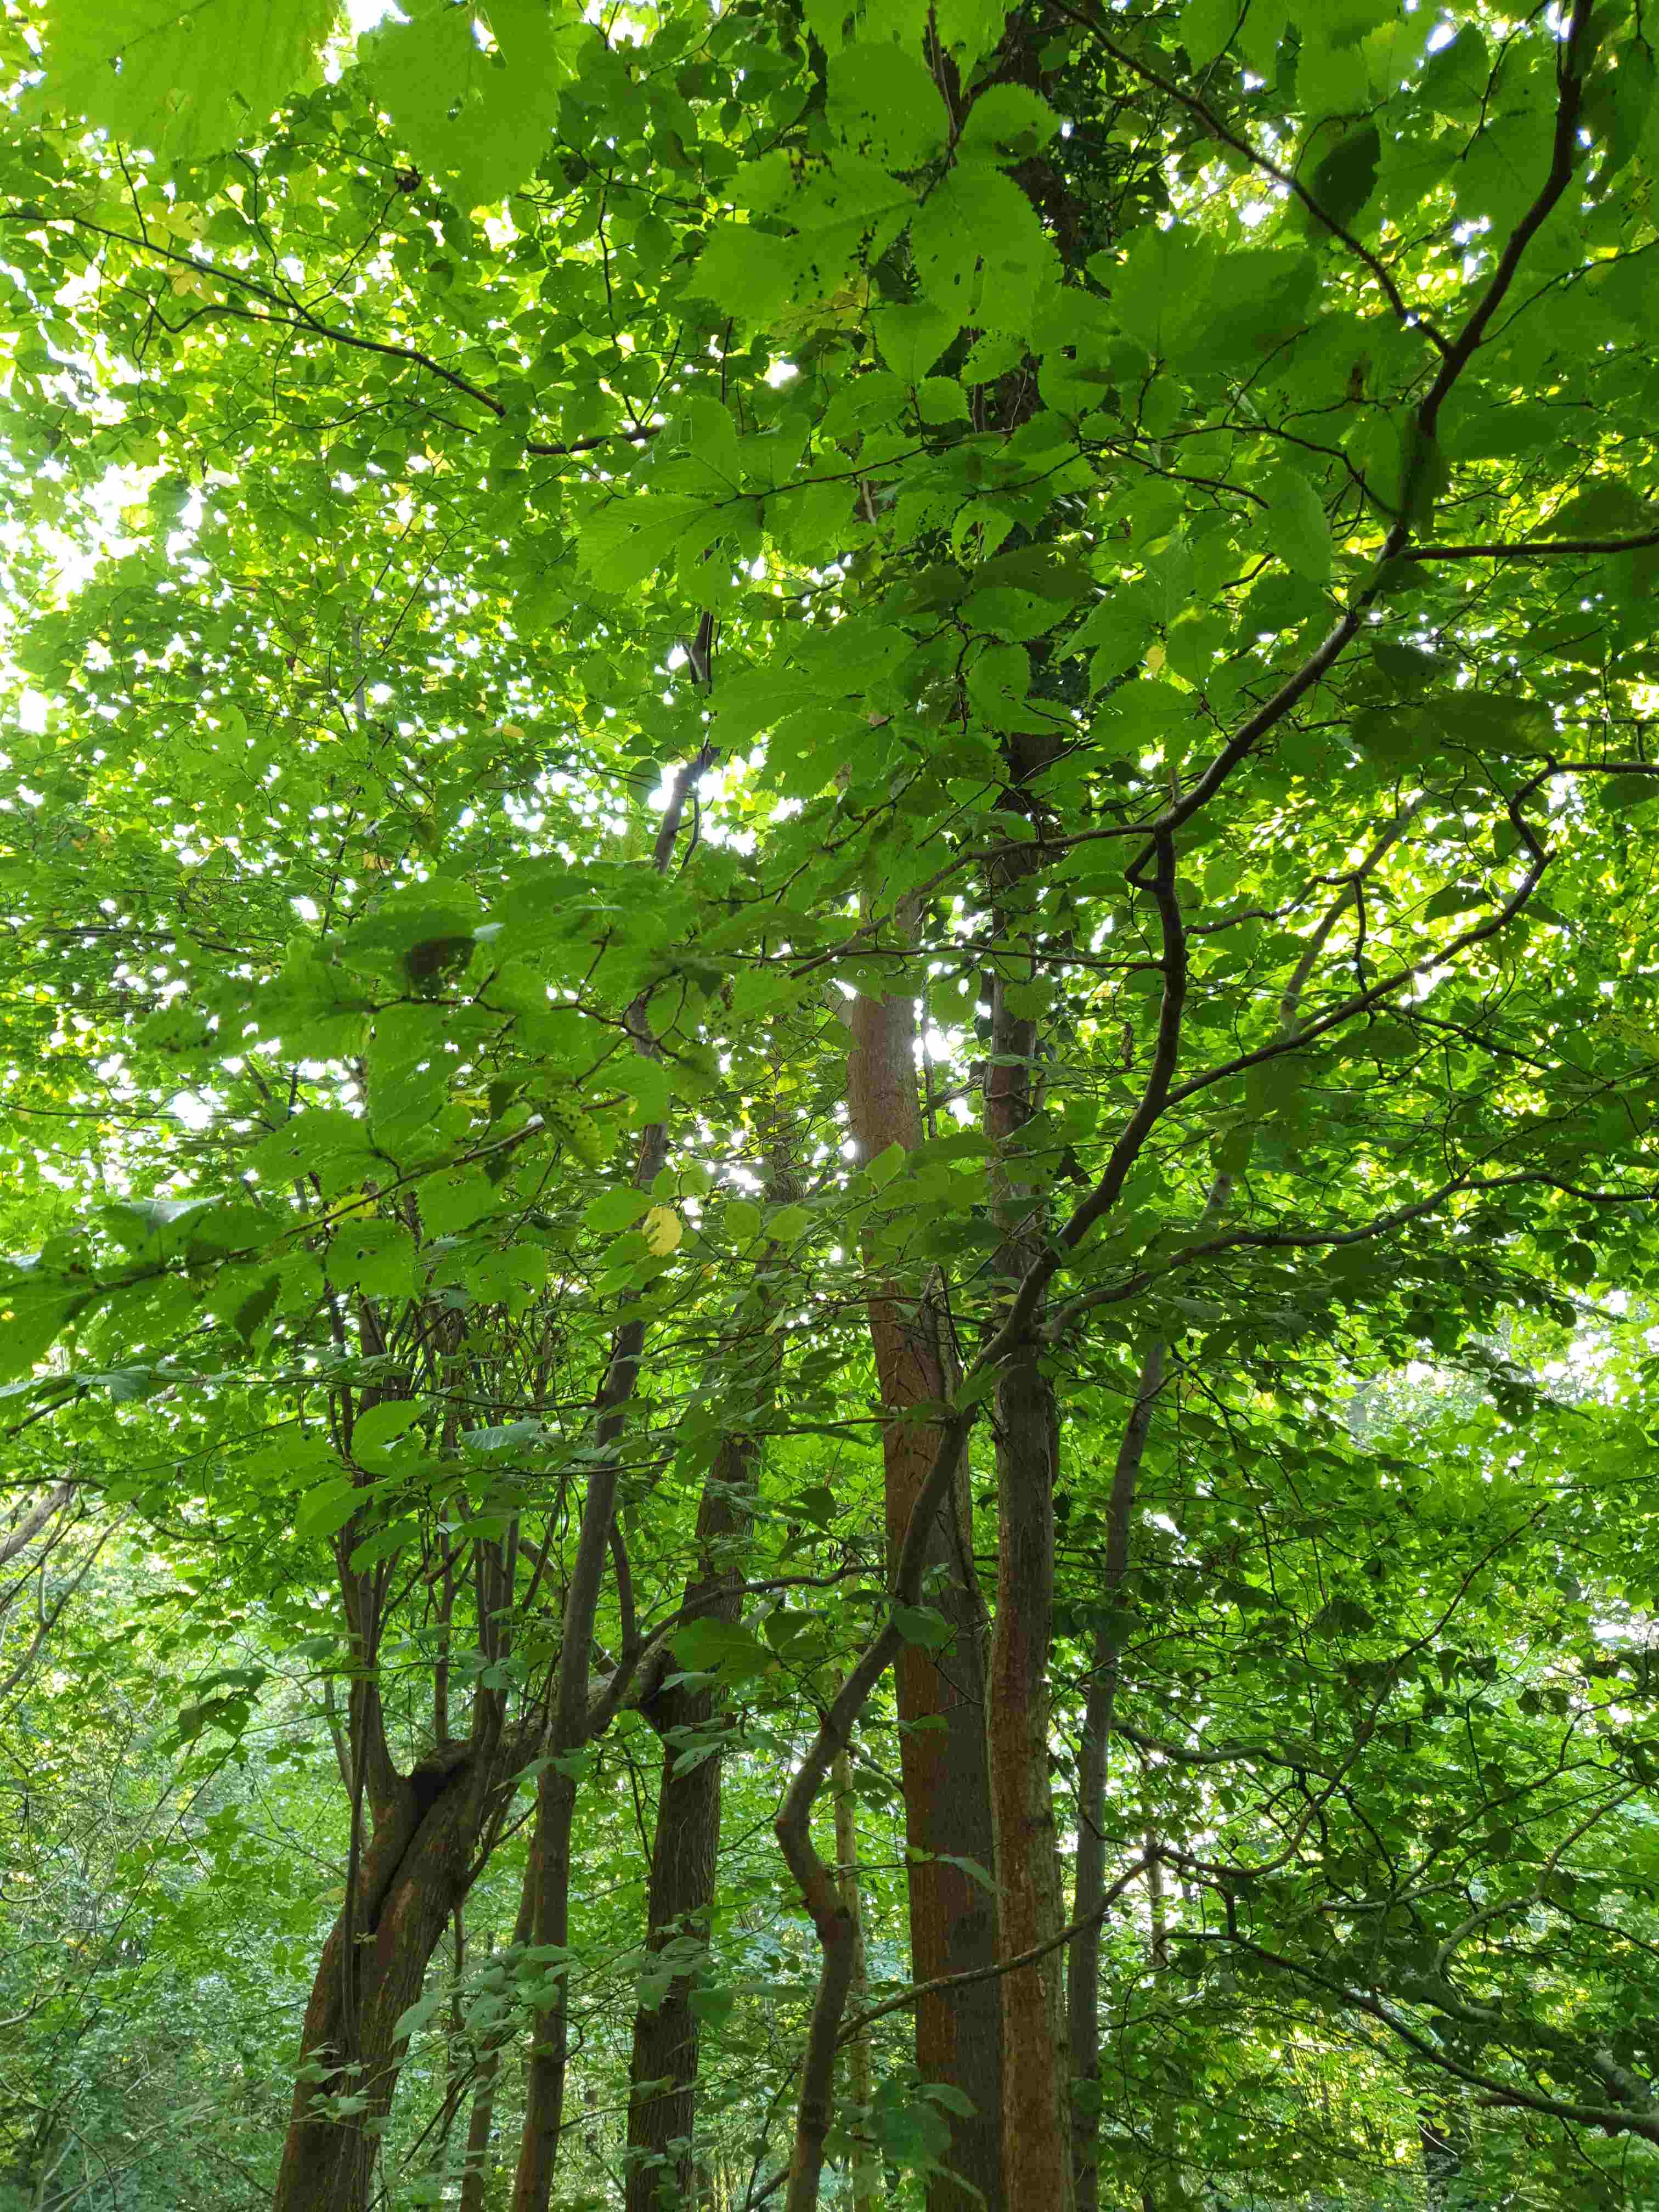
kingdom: Fungi
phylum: Basidiomycota
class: Agaricomycetes
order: Agaricales
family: Omphalotaceae
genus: Collybiopsis
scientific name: Collybiopsis confluens
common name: knippe-fladhat
